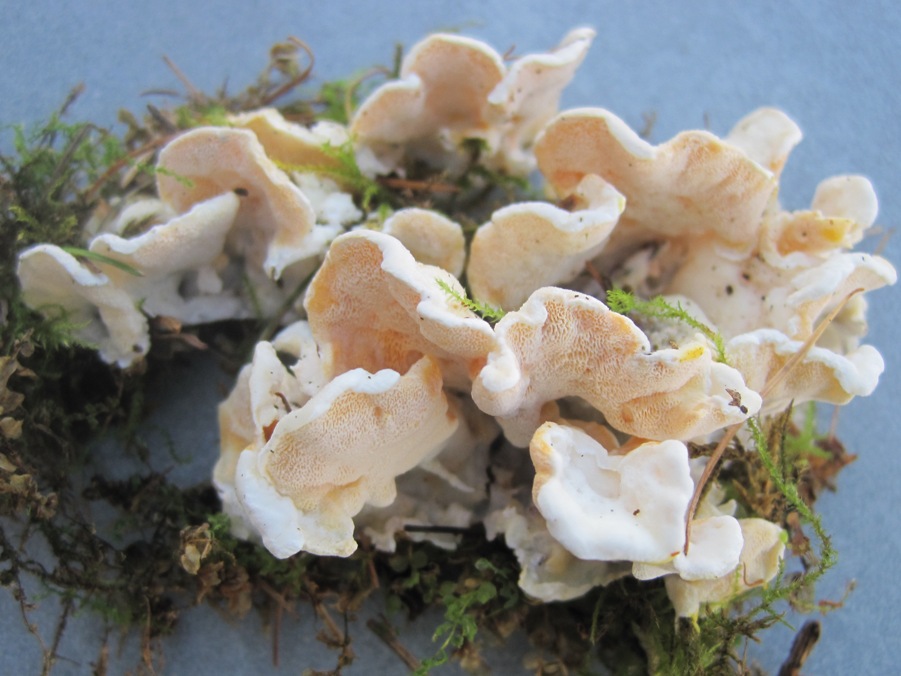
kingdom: Fungi
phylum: Basidiomycota
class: Agaricomycetes
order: Polyporales
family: Incrustoporiaceae
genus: Skeletocutis
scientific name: Skeletocutis amorpha
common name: orange krystalporesvamp
